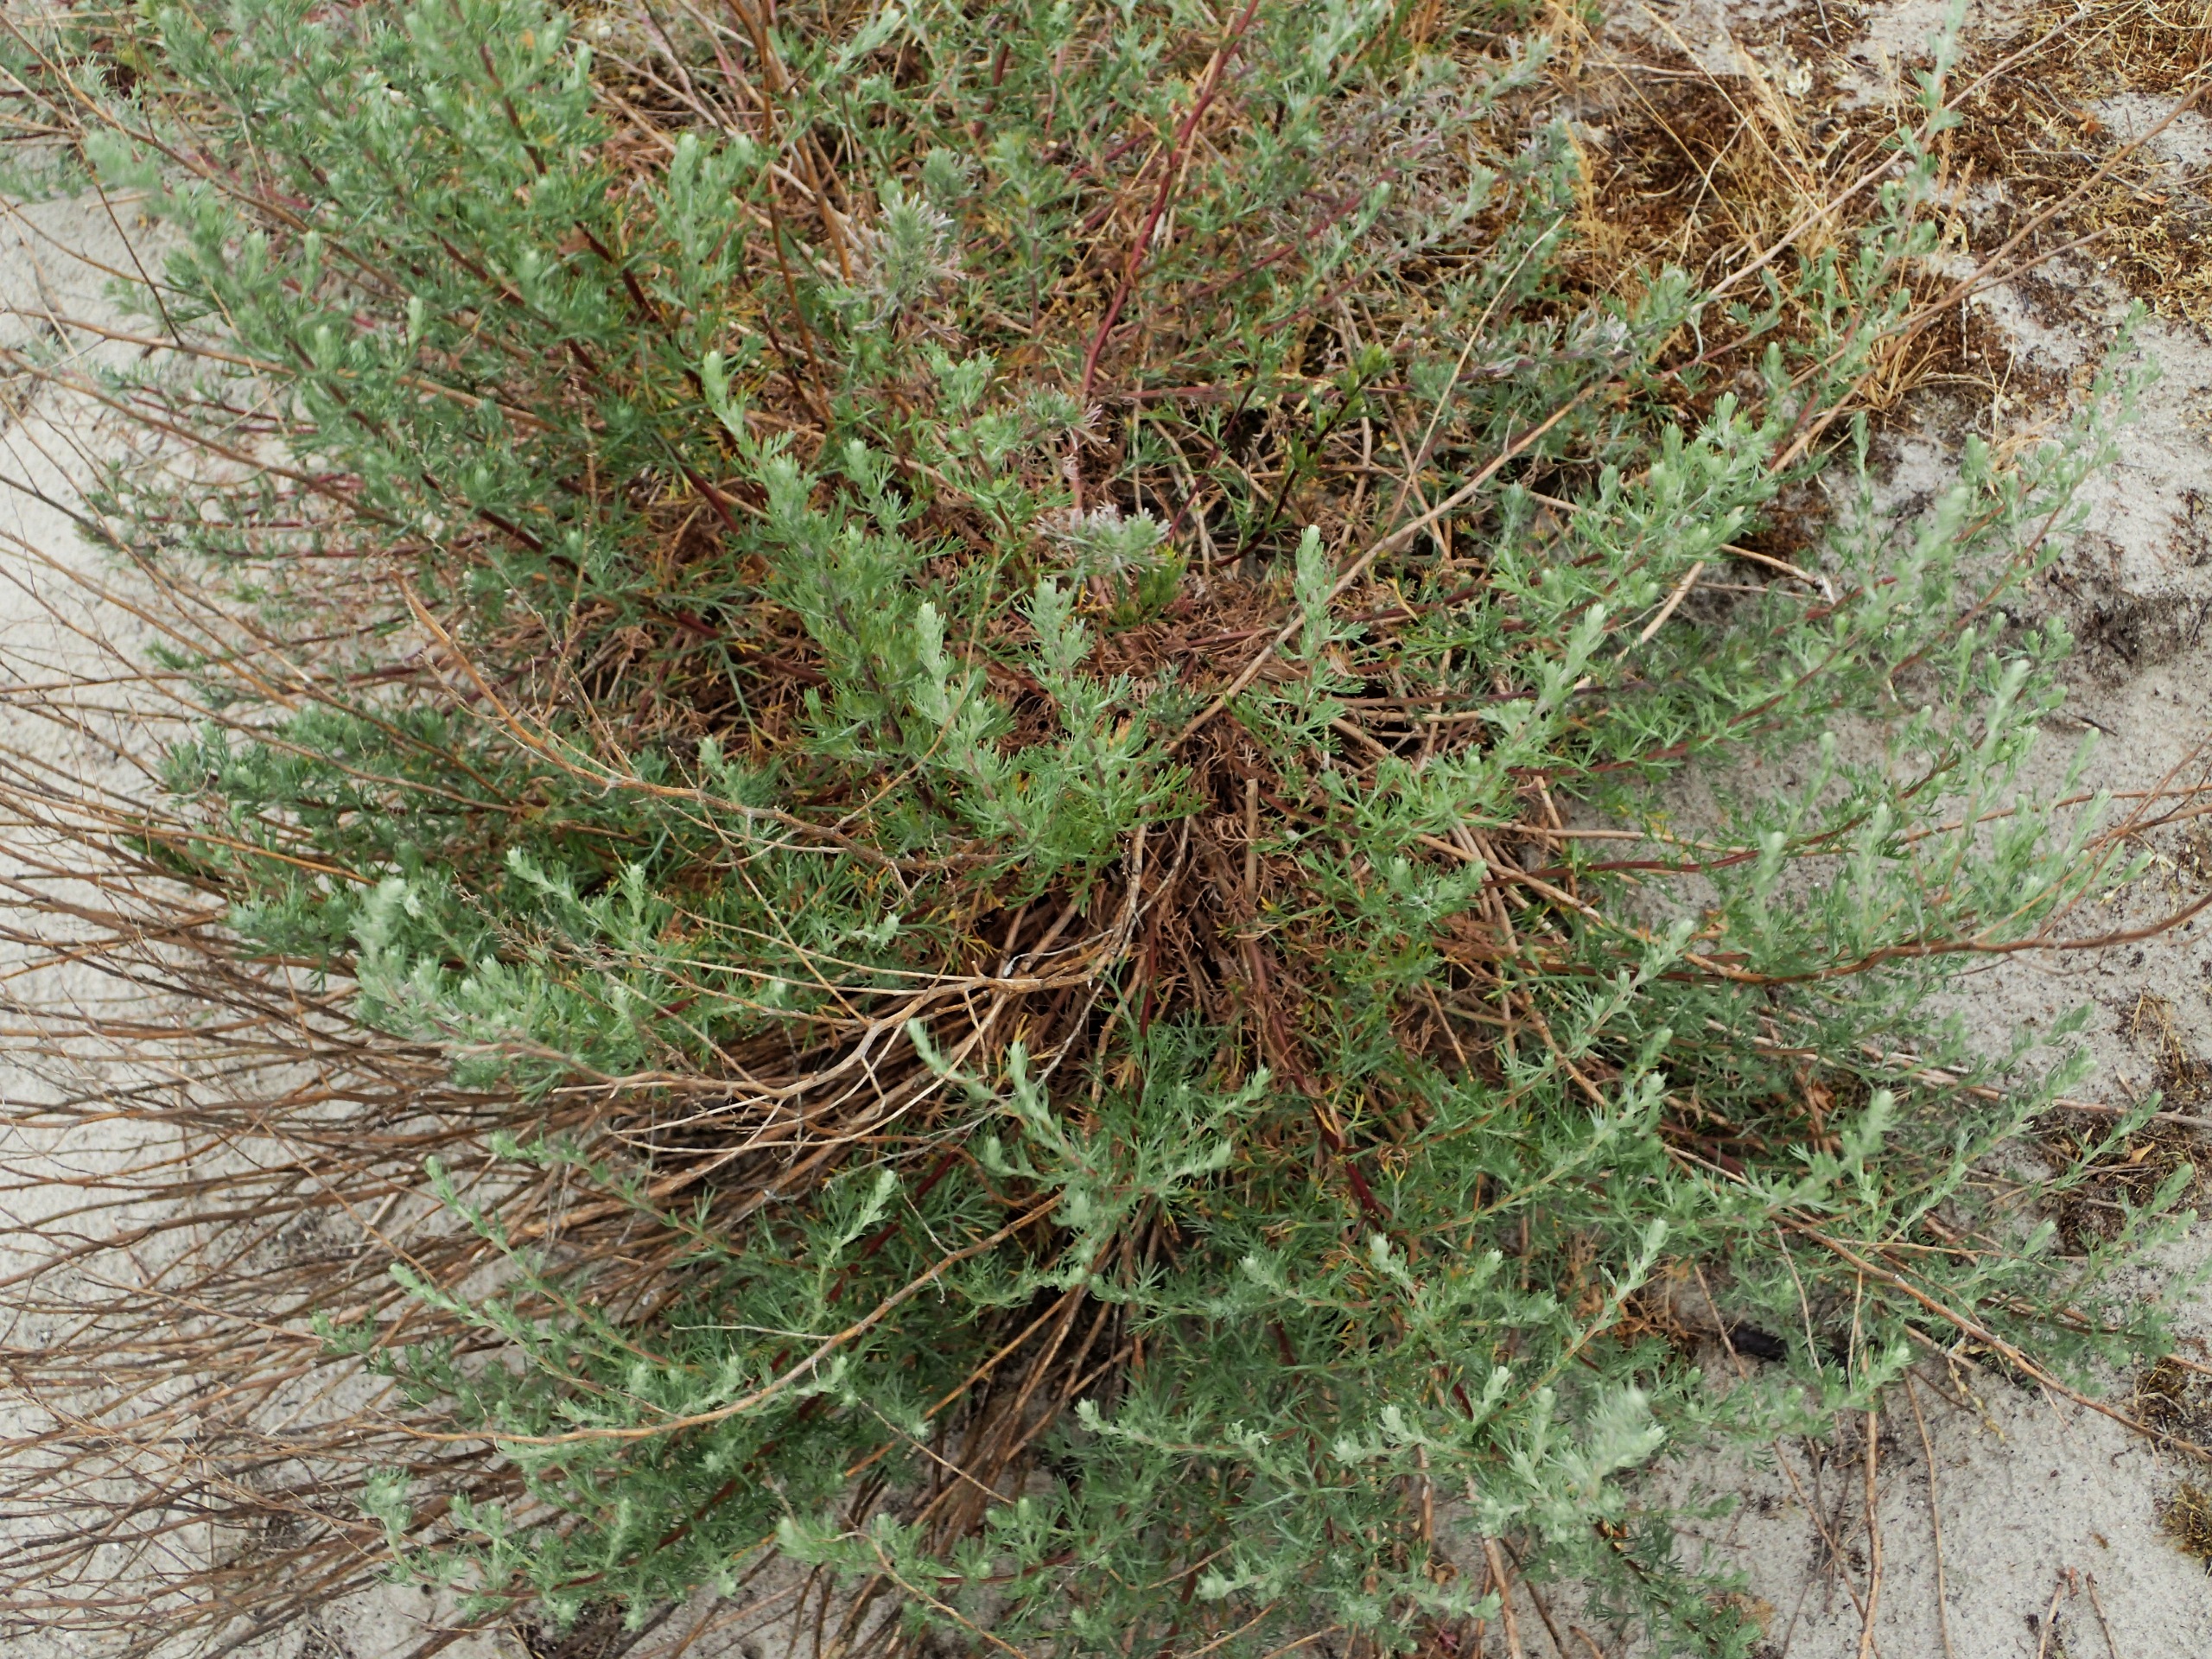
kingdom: Plantae
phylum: Tracheophyta
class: Magnoliopsida
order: Asterales
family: Asteraceae
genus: Artemisia
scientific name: Artemisia campestris
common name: Mark-bynke
